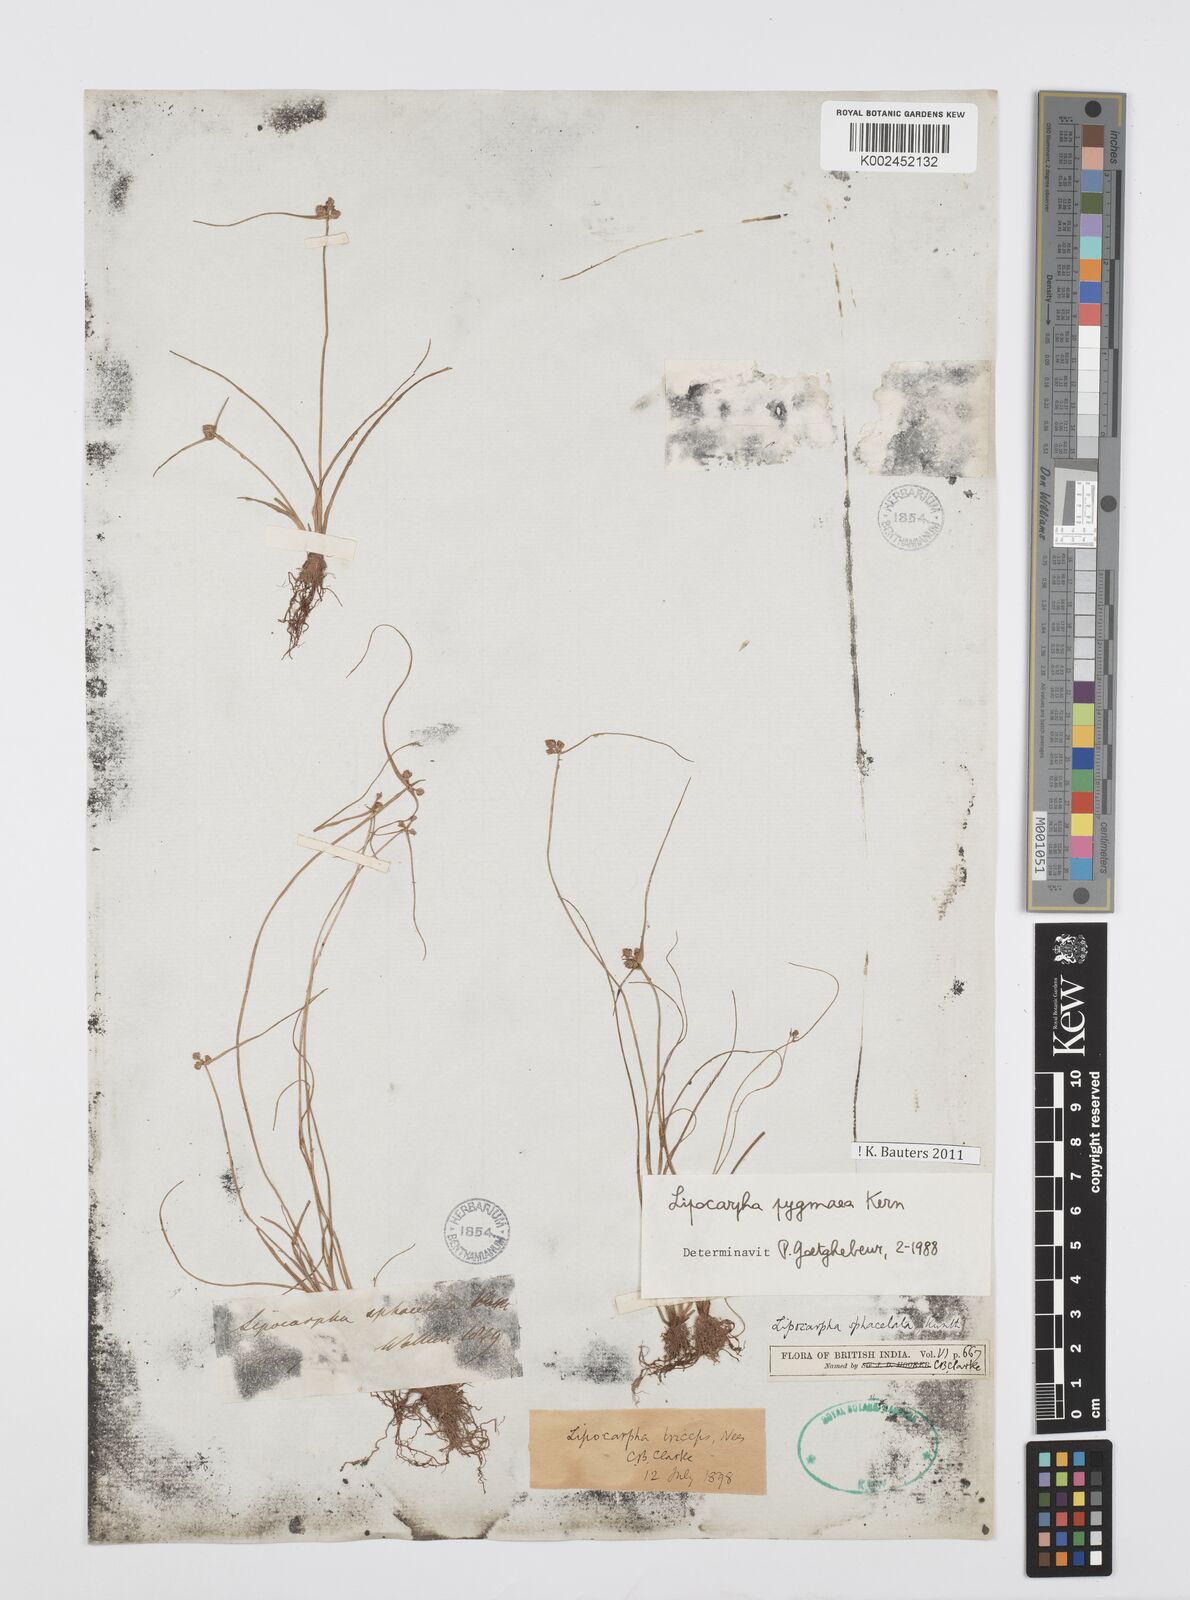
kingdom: Plantae
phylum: Tracheophyta
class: Liliopsida
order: Poales
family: Cyperaceae
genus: Cyperus
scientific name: Cyperus
